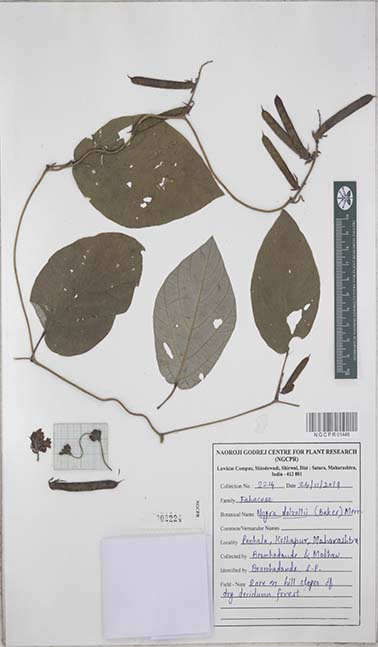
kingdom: Plantae
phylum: Tracheophyta
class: Magnoliopsida
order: Fabales
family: Fabaceae
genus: Nogra
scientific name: Nogra dalzellii
